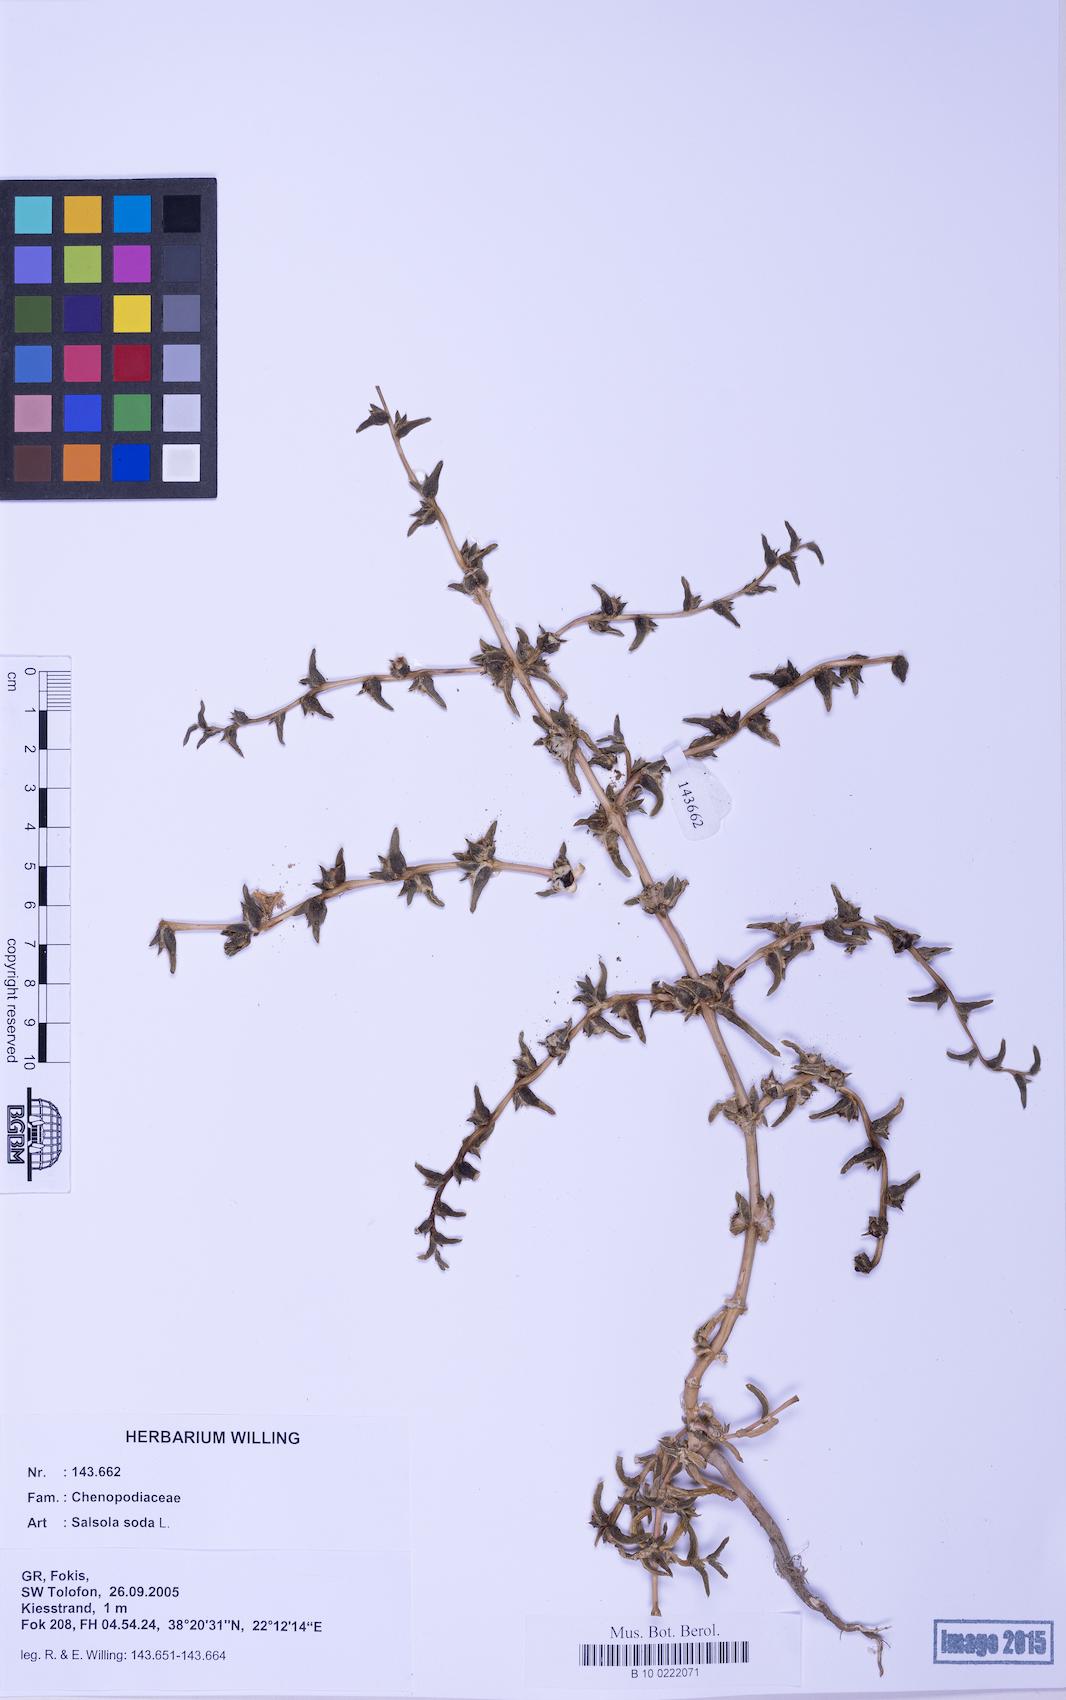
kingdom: Plantae
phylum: Tracheophyta
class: Magnoliopsida
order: Caryophyllales
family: Amaranthaceae
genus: Soda
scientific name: Soda inermis
